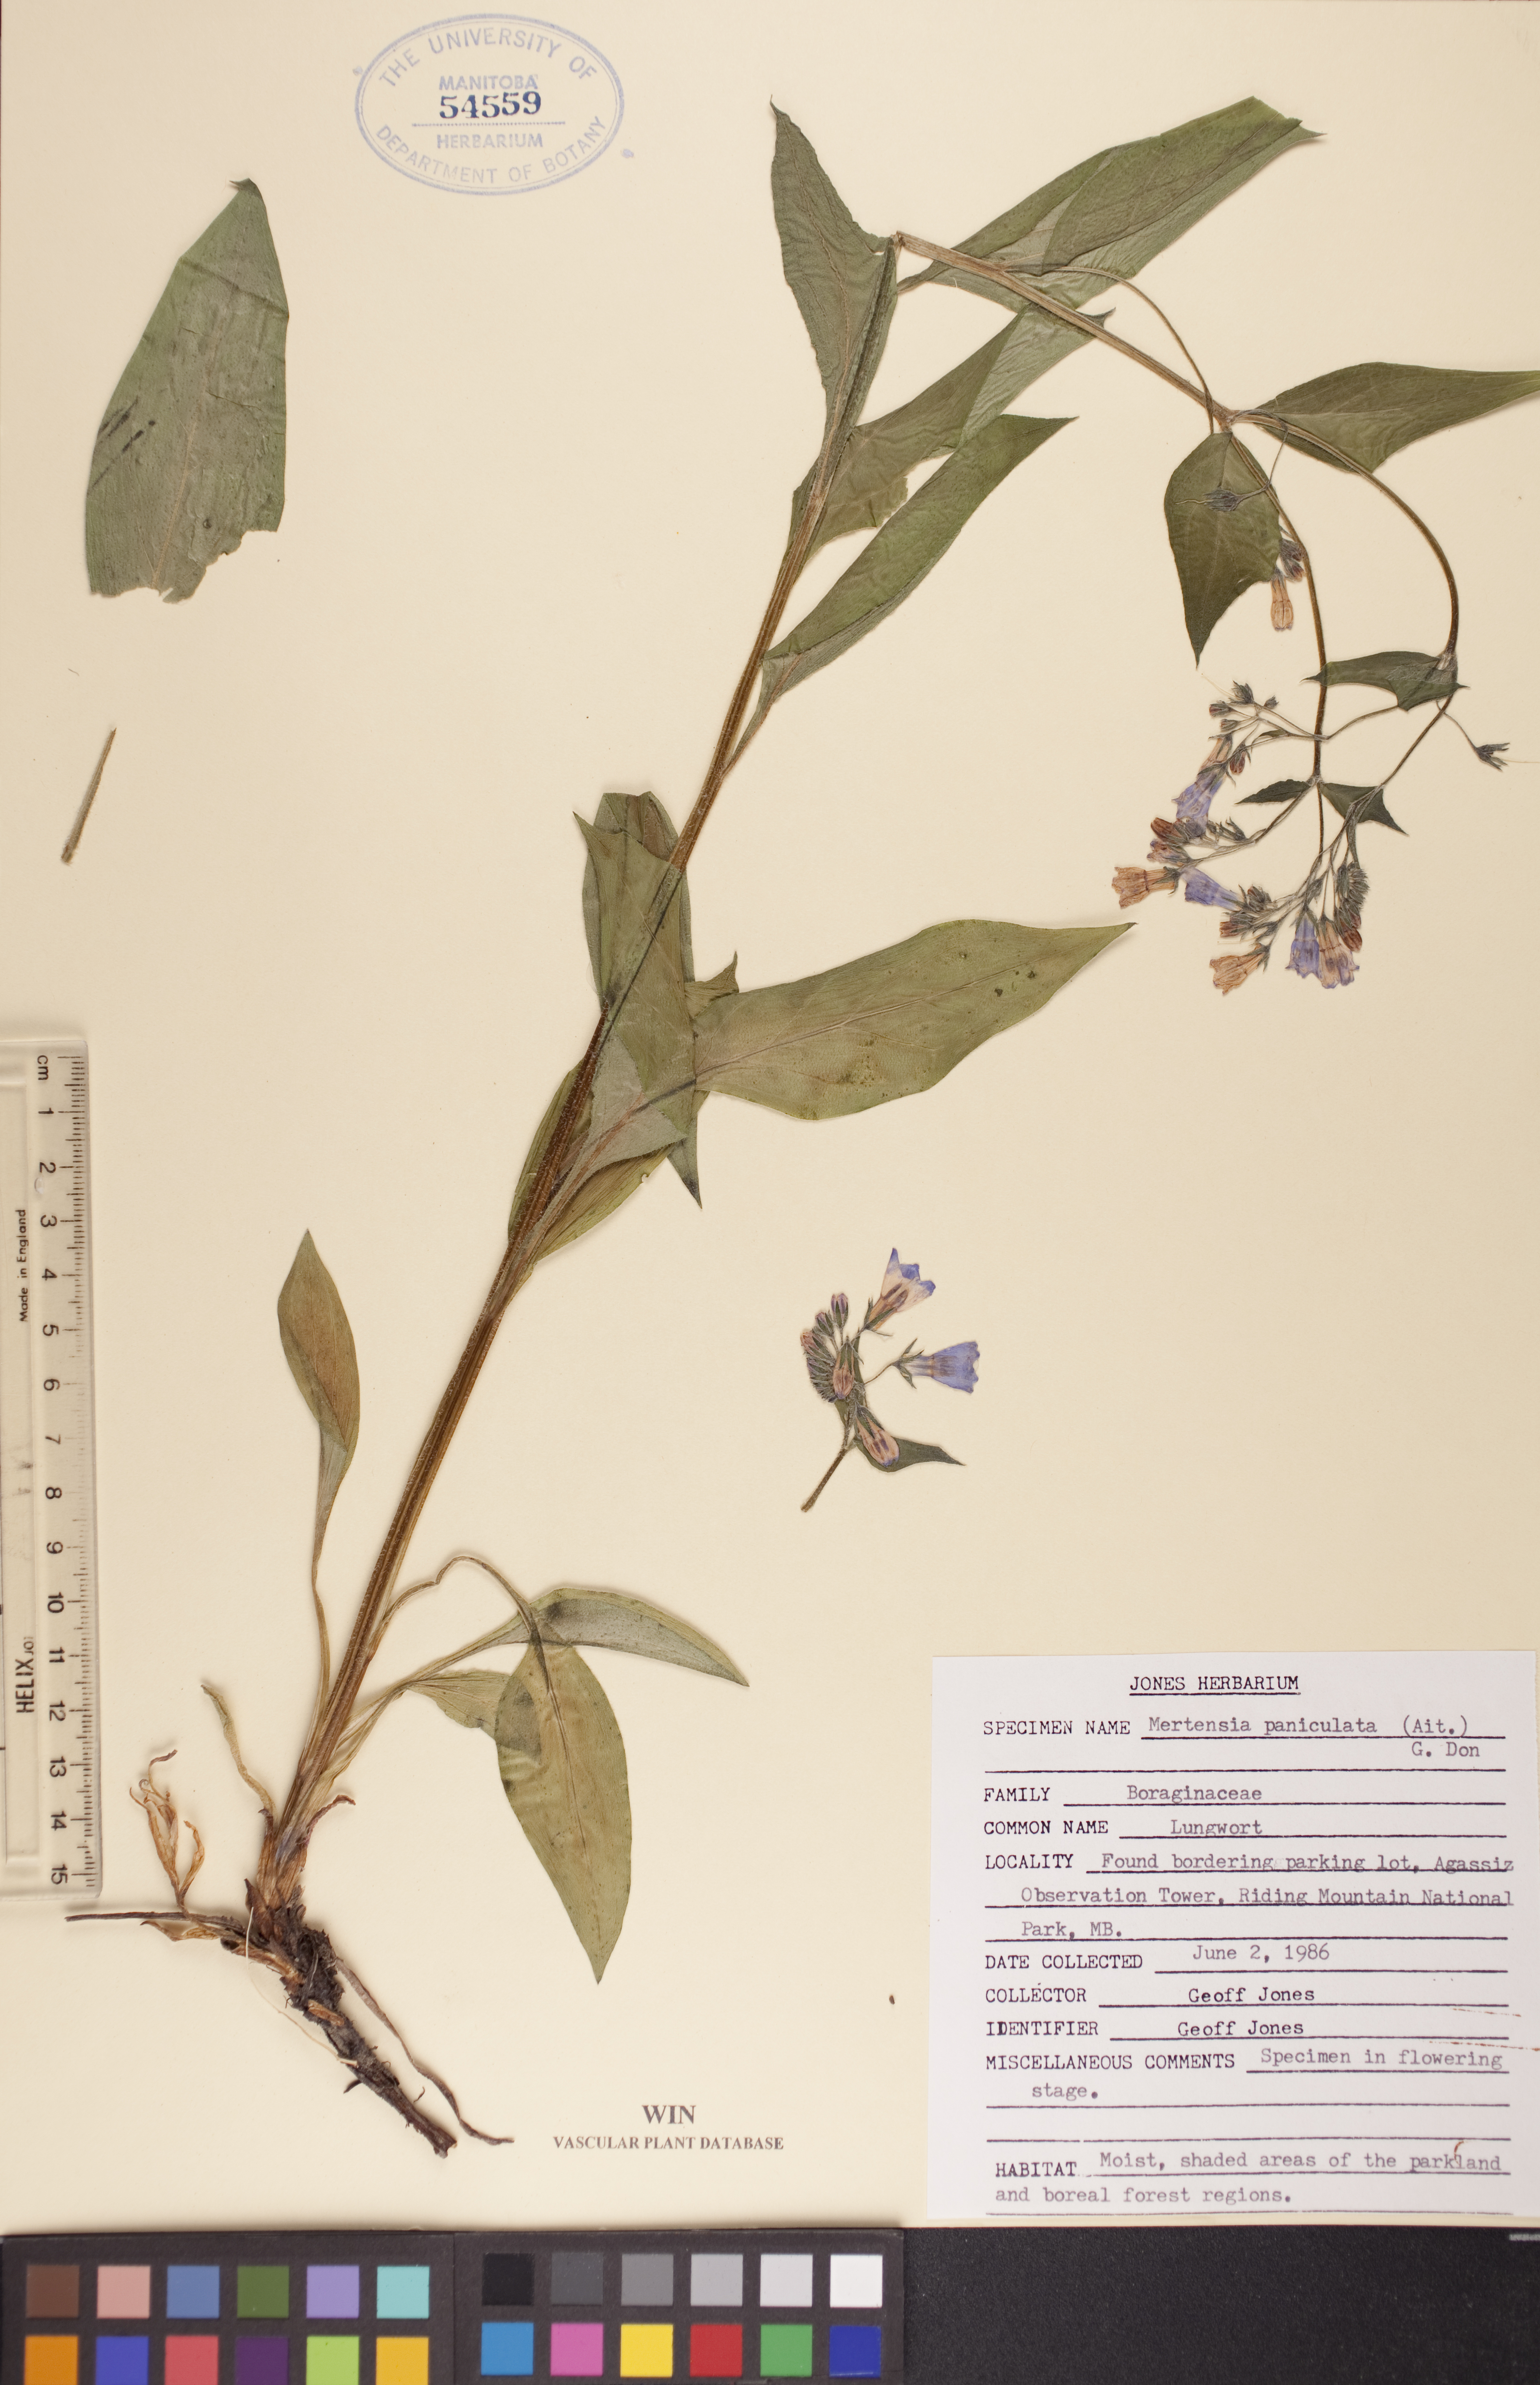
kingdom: Plantae
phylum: Tracheophyta
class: Magnoliopsida
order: Boraginales
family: Boraginaceae
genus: Mertensia
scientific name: Mertensia paniculata
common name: Panicled bluebells
